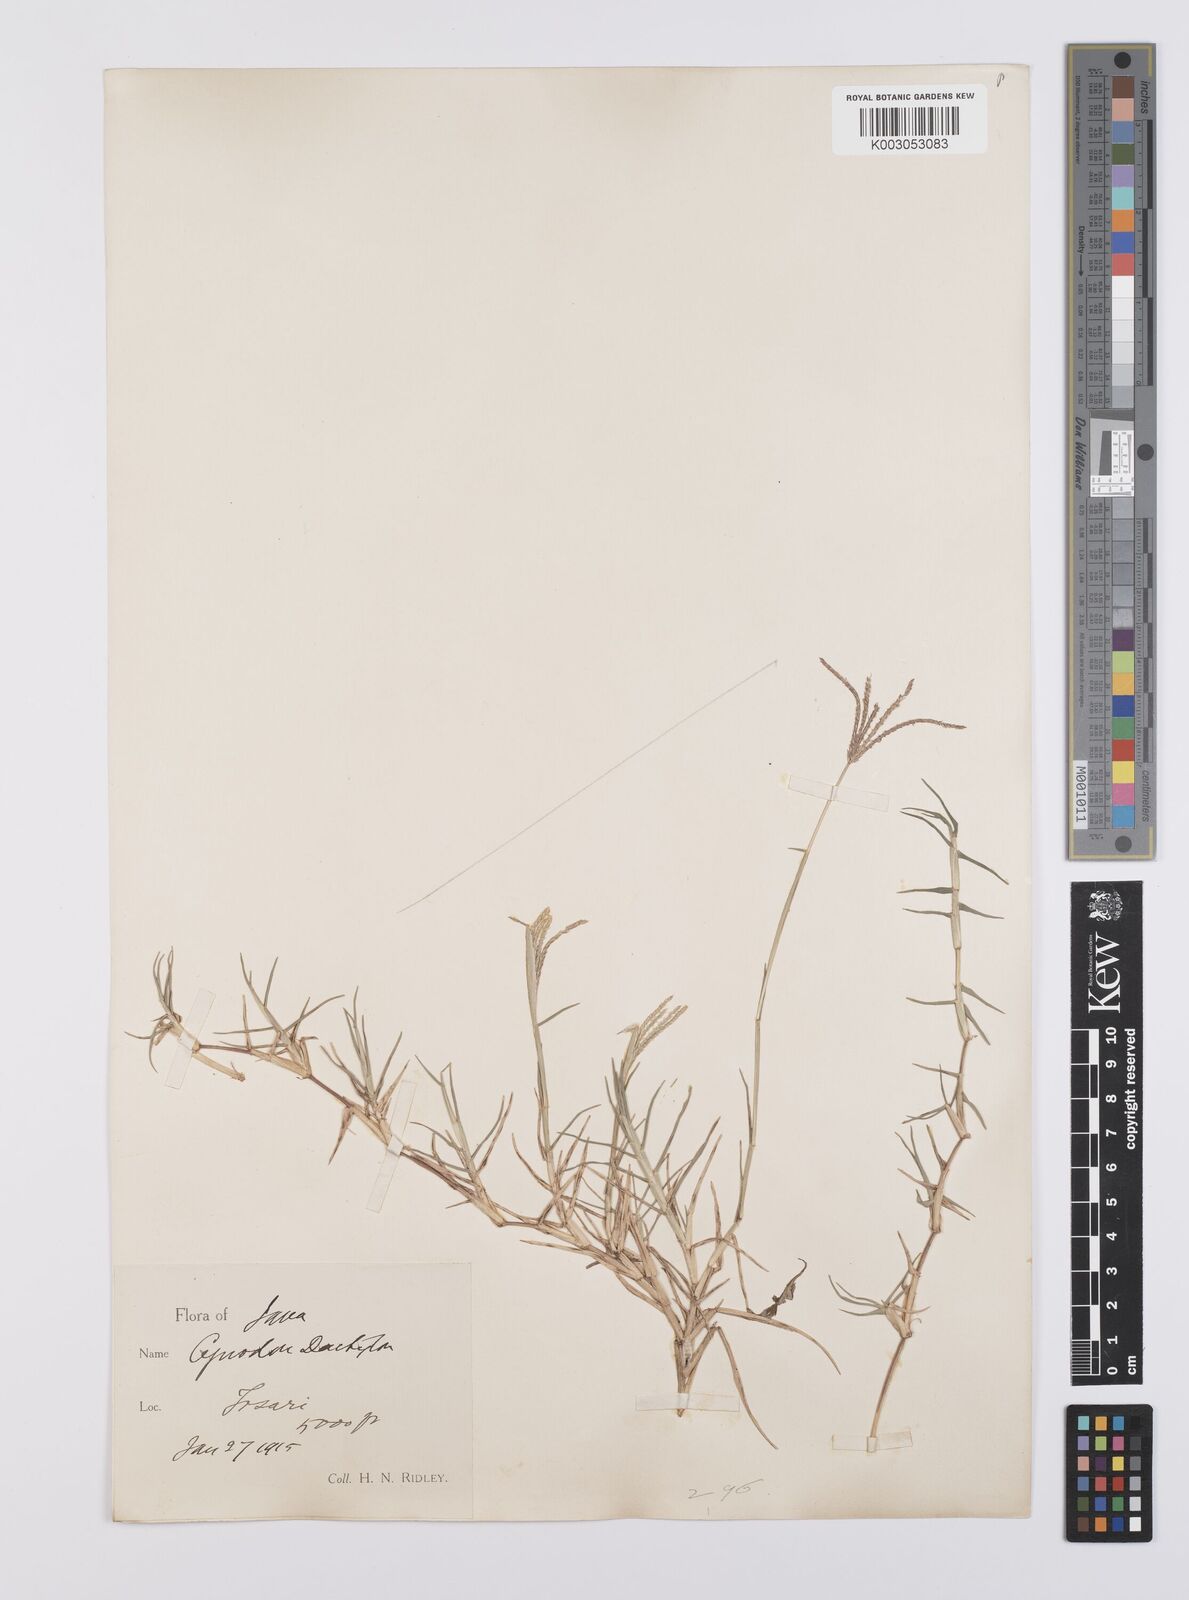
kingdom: Plantae
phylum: Tracheophyta
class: Liliopsida
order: Poales
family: Poaceae
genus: Cynodon
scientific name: Cynodon dactylon
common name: Bermuda grass
